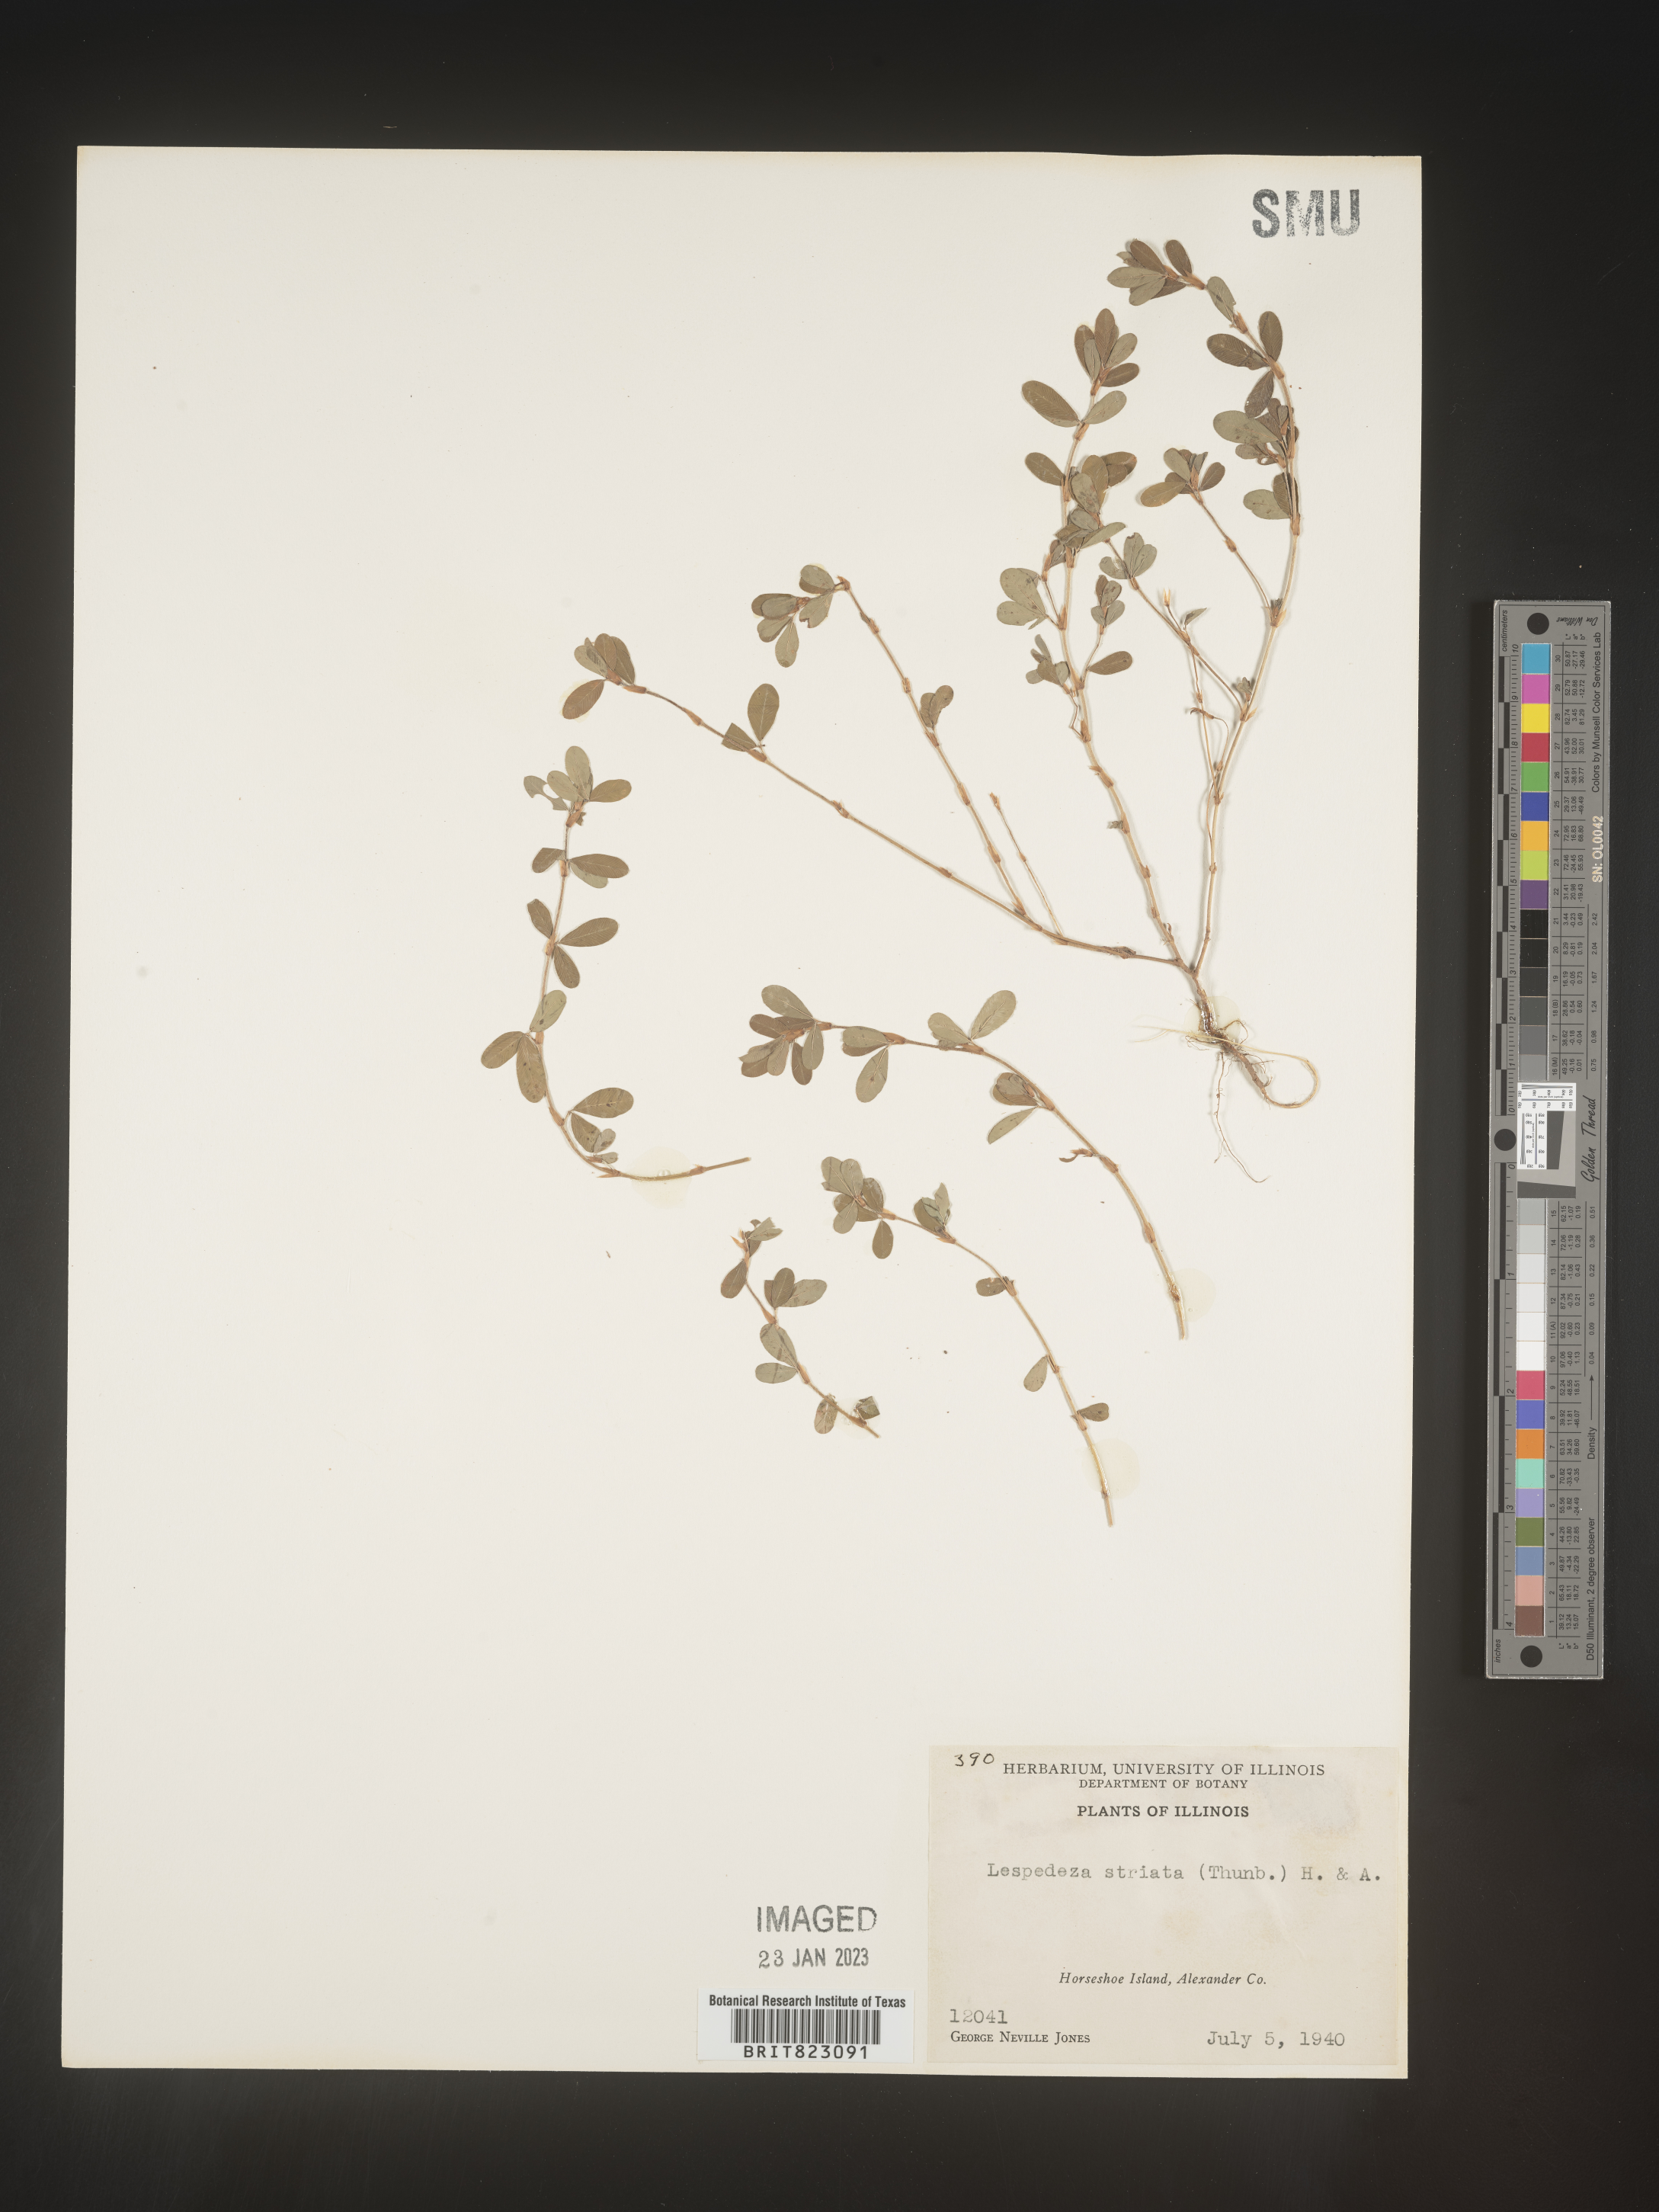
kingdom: Plantae
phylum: Tracheophyta
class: Magnoliopsida
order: Fabales
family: Fabaceae
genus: Kummerowia
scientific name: Kummerowia striata
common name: Japanese clover
